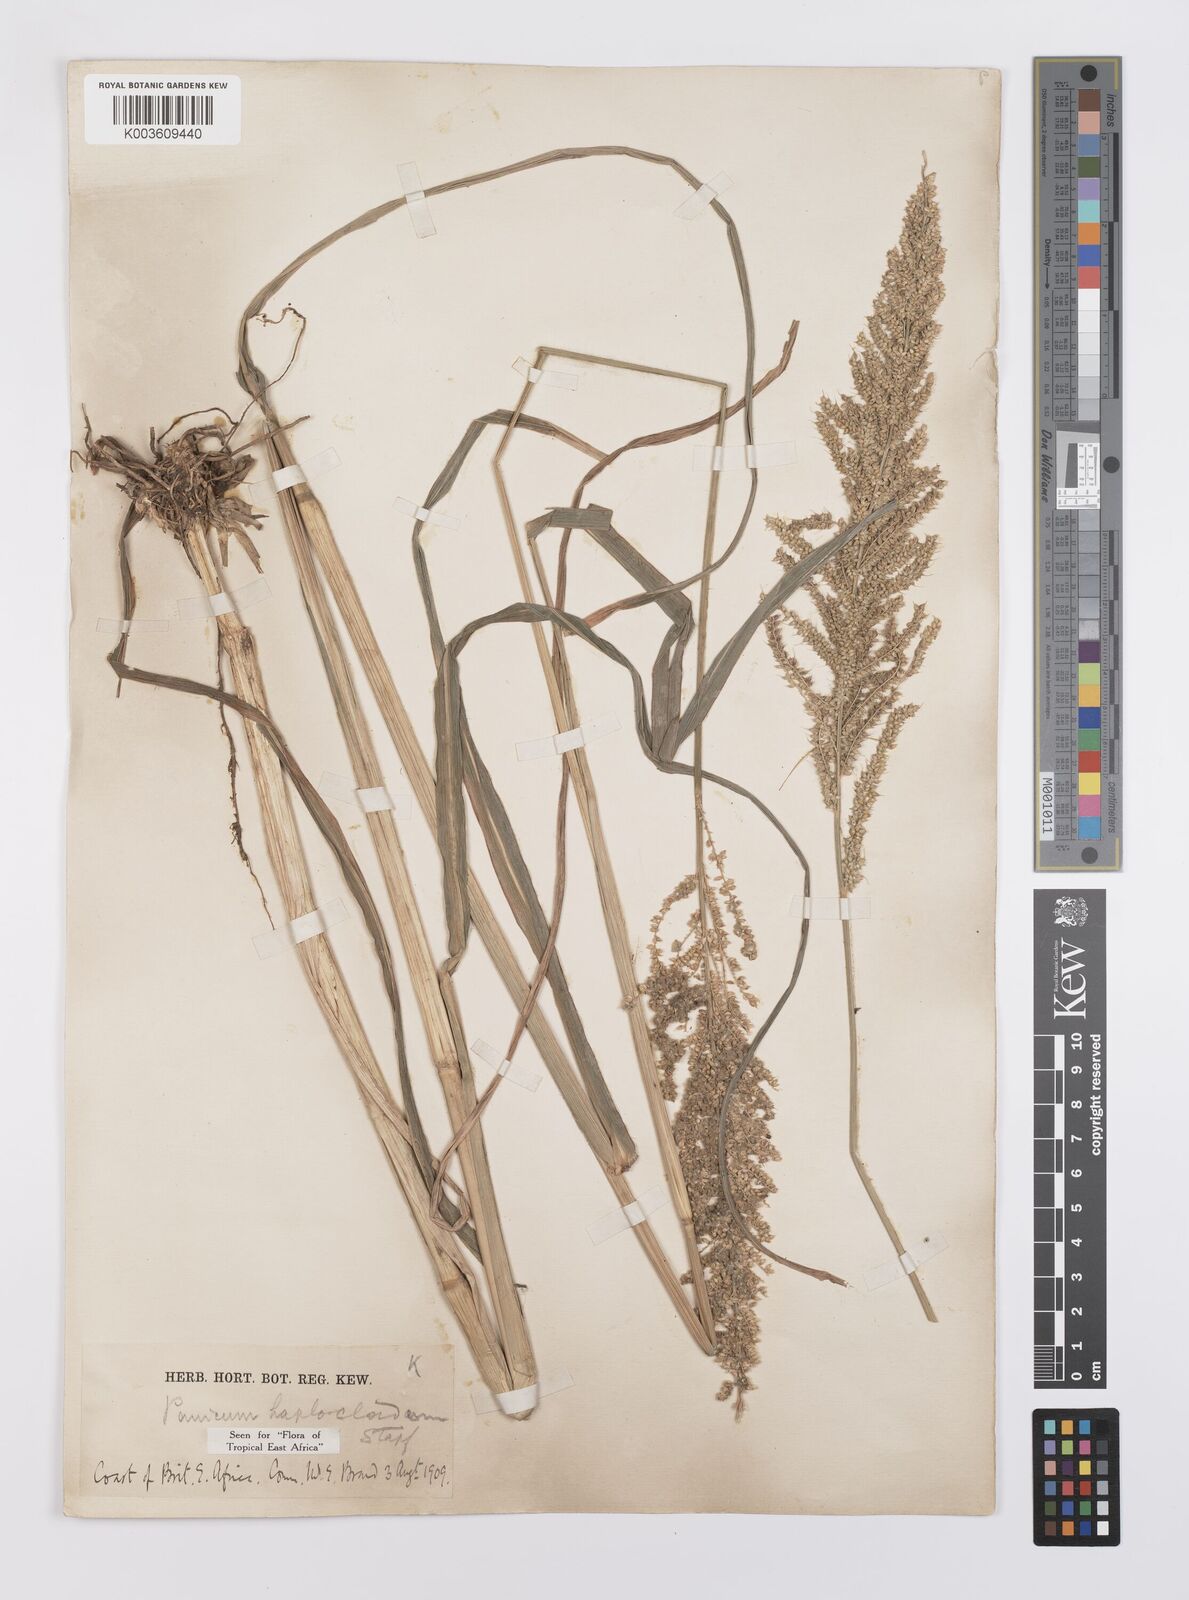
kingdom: Plantae
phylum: Tracheophyta
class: Liliopsida
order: Poales
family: Poaceae
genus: Echinochloa
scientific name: Echinochloa haploclada
